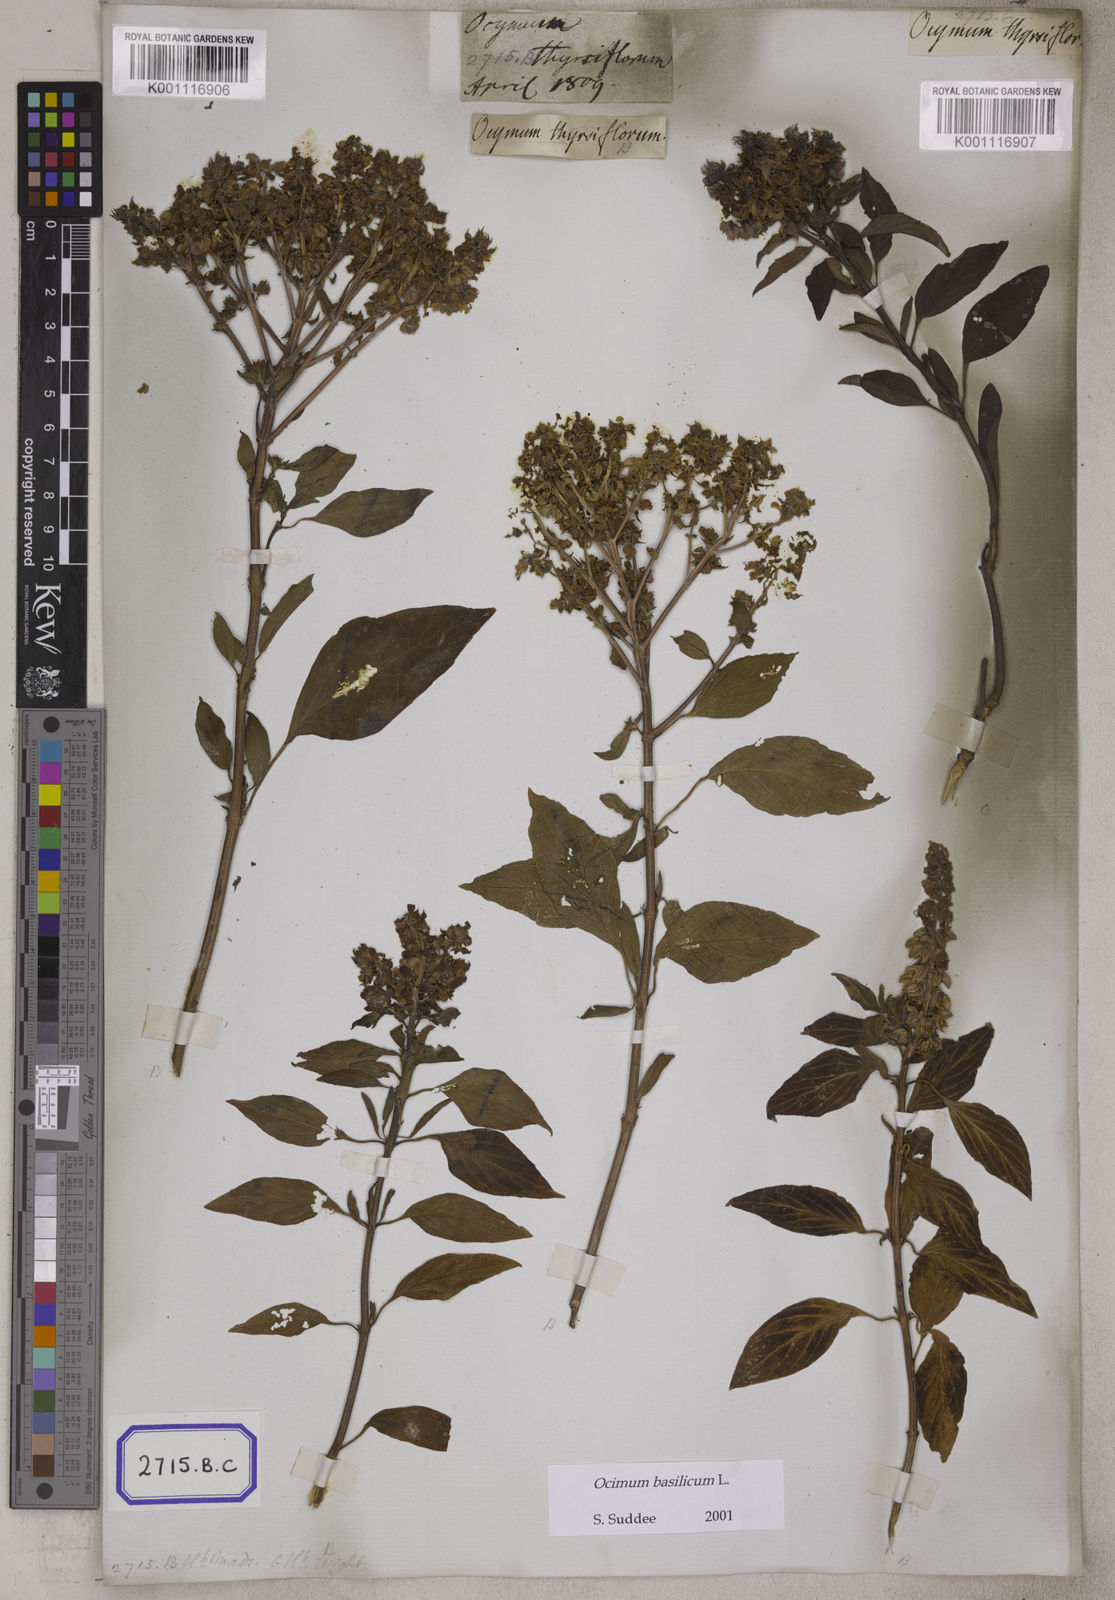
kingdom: Plantae
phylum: Tracheophyta
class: Magnoliopsida
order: Lamiales
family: Lamiaceae
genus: Ocimum
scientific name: Ocimum basilicum
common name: Sweet basil
